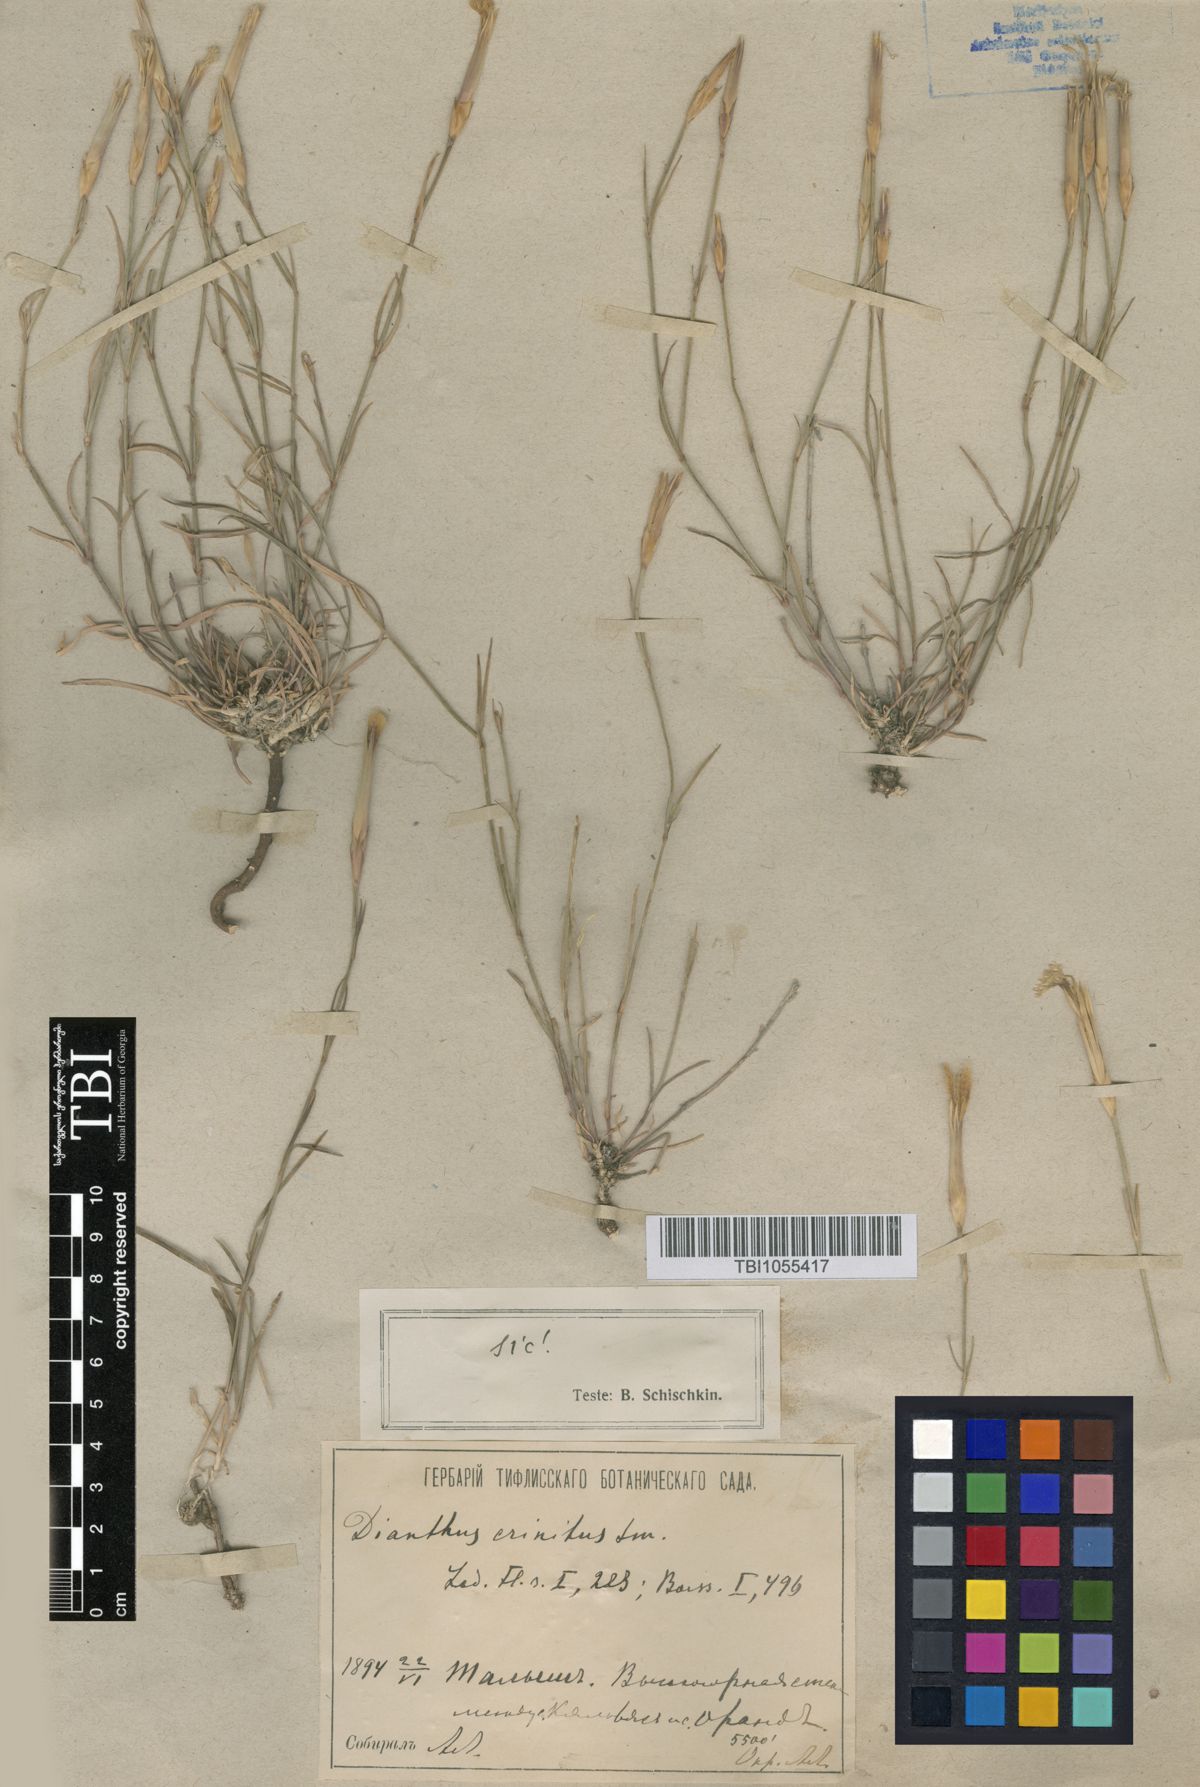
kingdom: Plantae
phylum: Tracheophyta
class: Magnoliopsida
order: Caryophyllales
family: Caryophyllaceae
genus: Dianthus
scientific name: Dianthus crinitus
